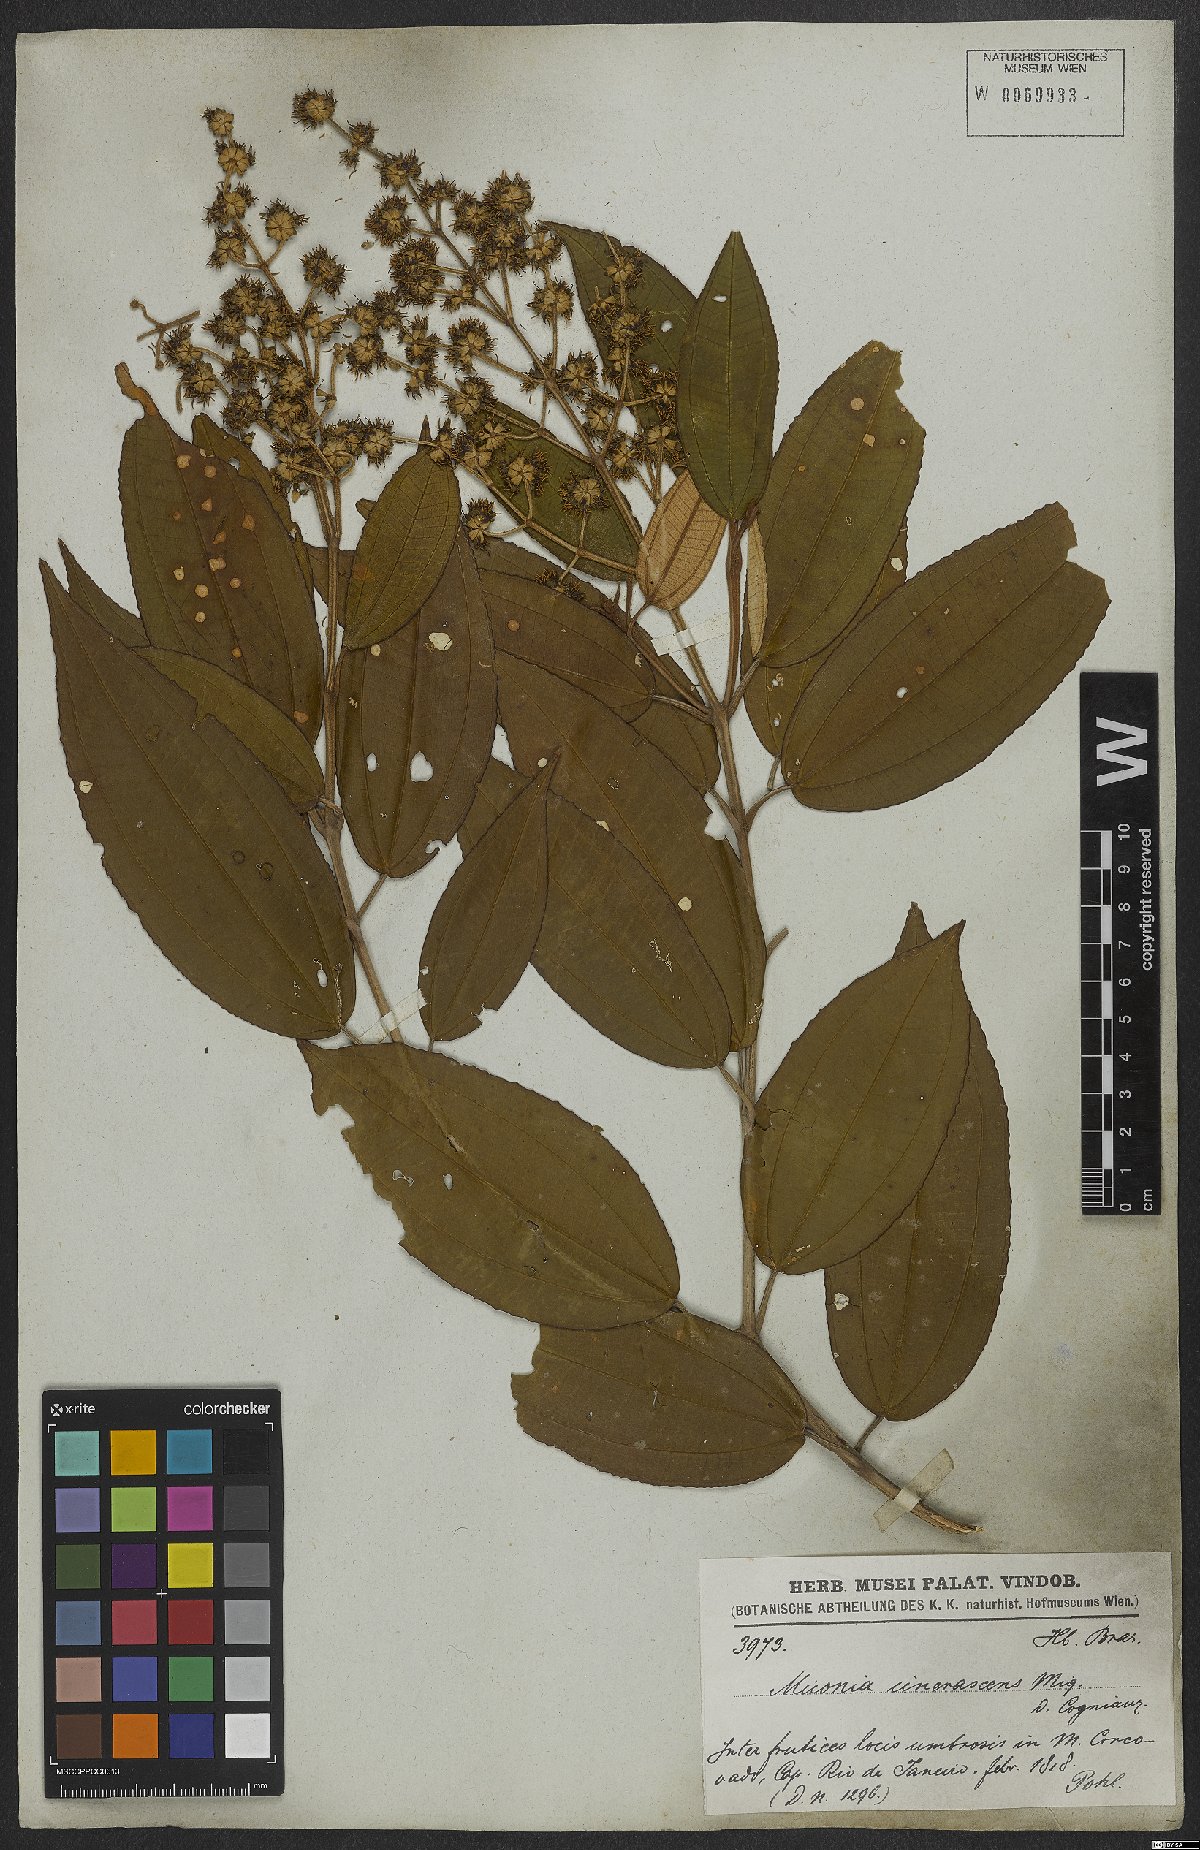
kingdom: Plantae
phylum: Tracheophyta
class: Magnoliopsida
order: Myrtales
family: Melastomataceae
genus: Miconia
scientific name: Miconia cinerascens
